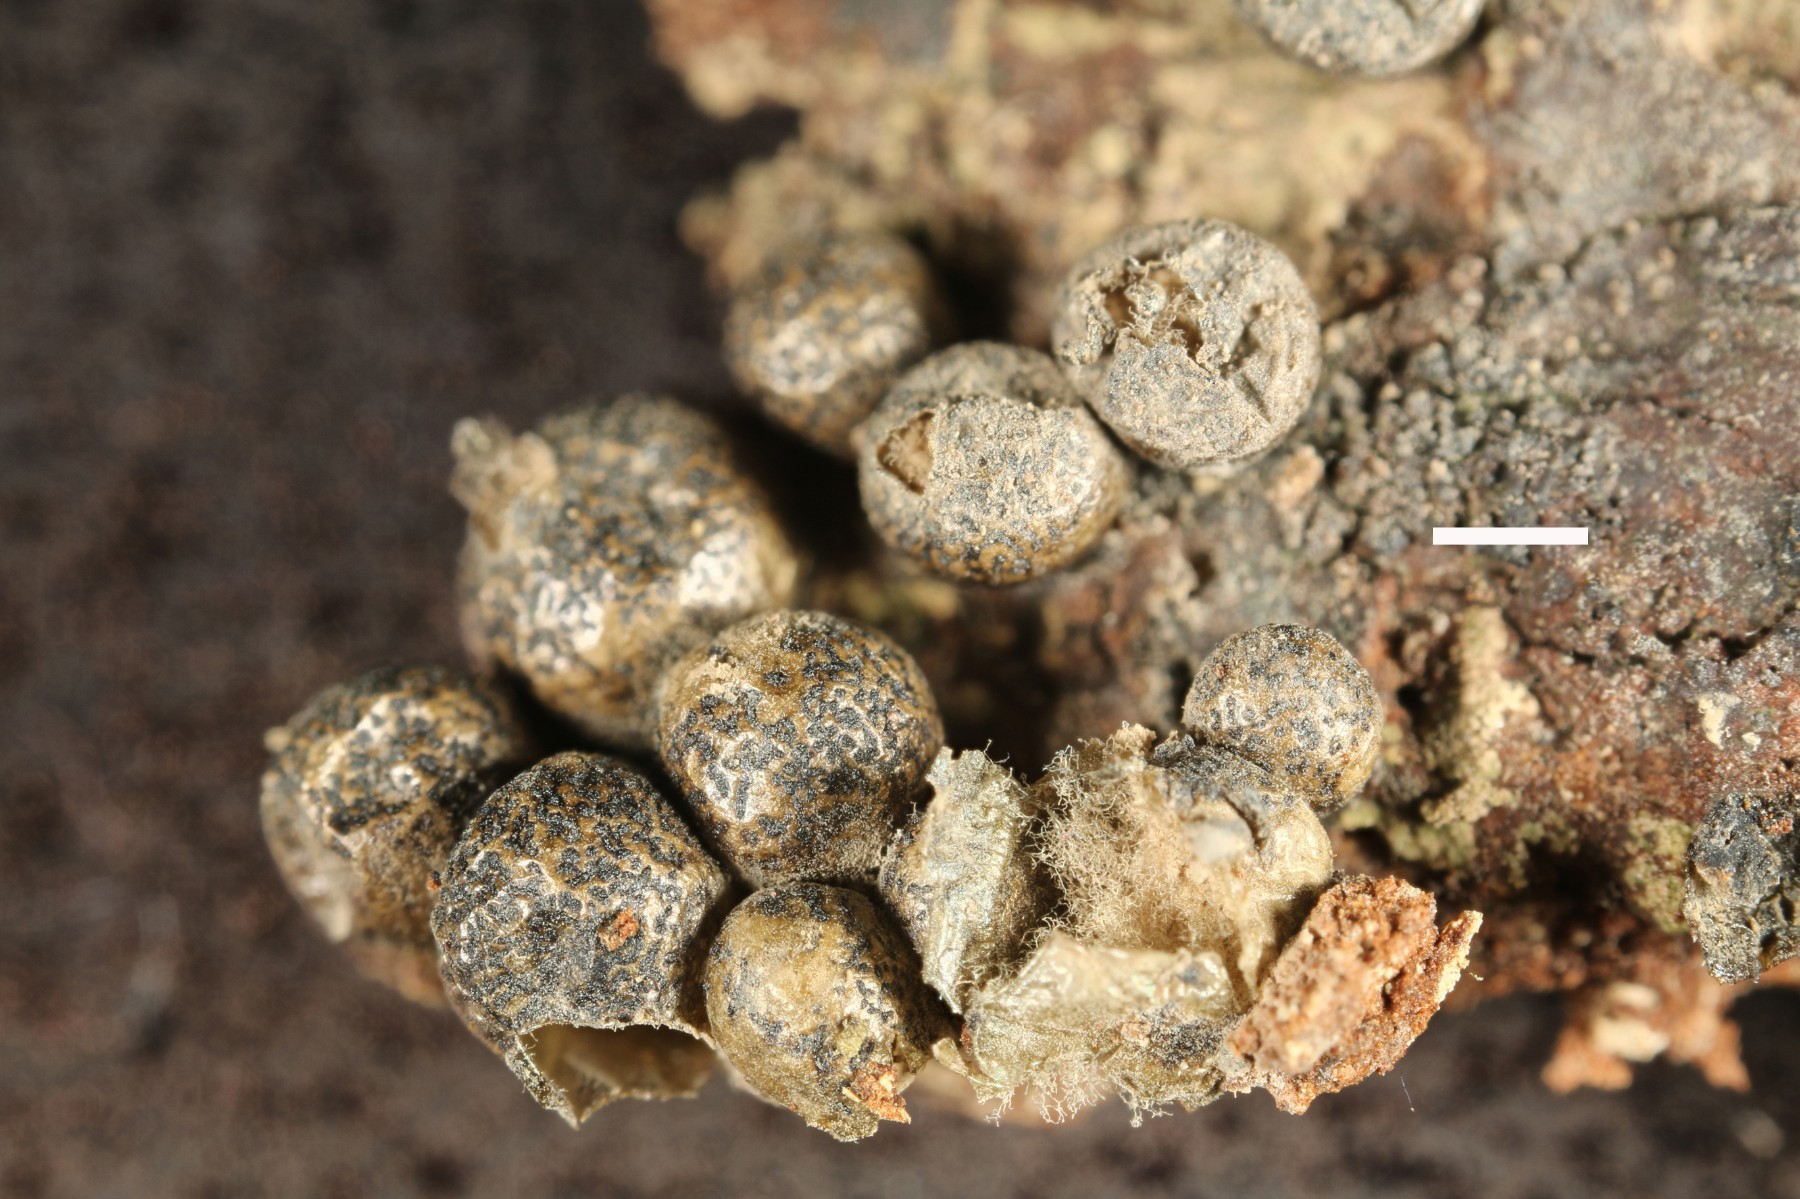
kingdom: Protozoa
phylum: Mycetozoa
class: Myxomycetes
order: Cribrariales
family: Tubiferaceae
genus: Lycogala
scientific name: Lycogala exiguum
